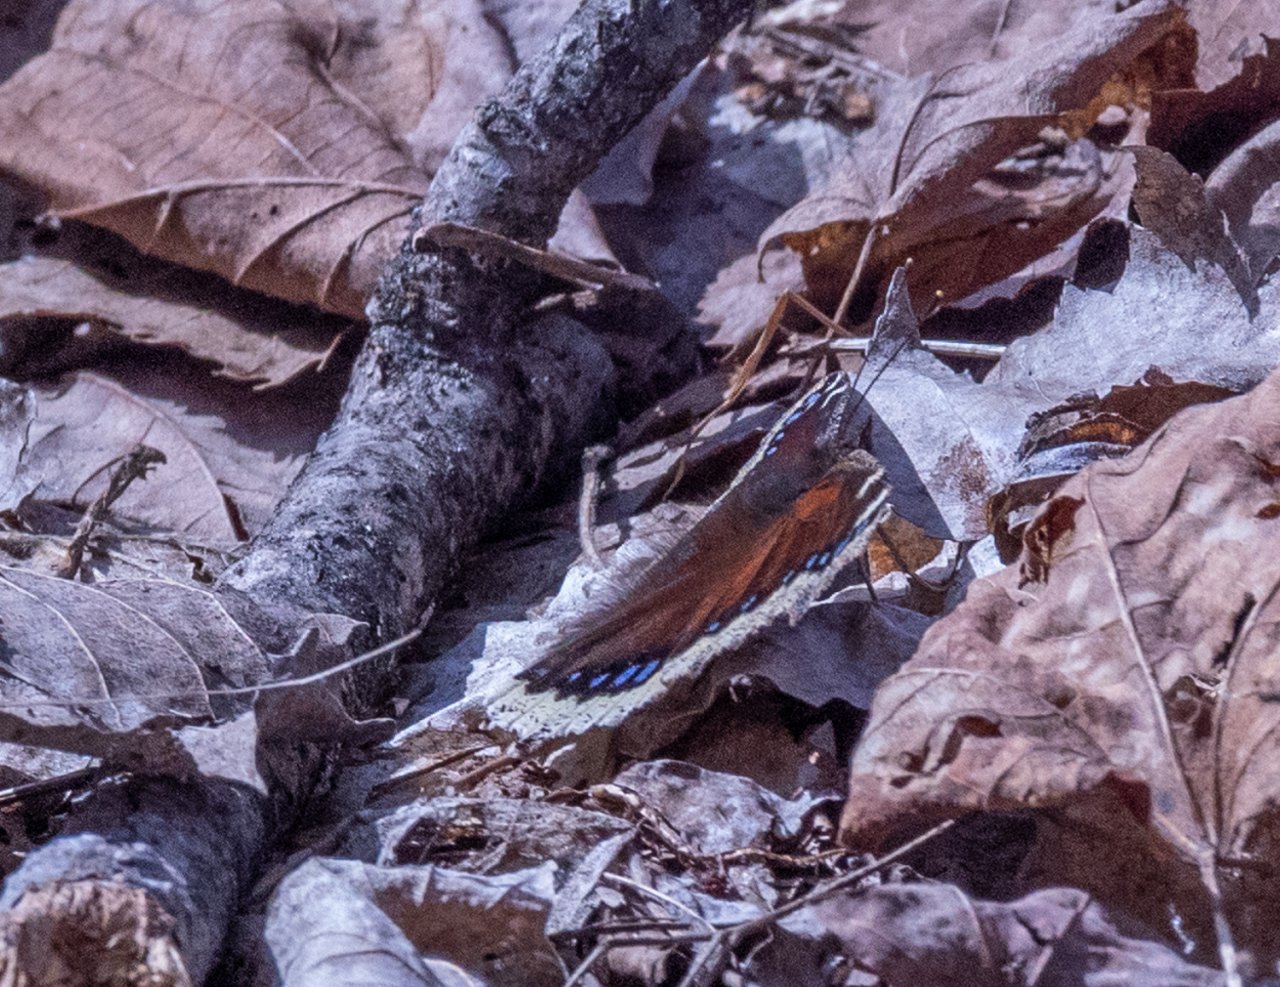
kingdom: Animalia
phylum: Arthropoda
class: Insecta
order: Lepidoptera
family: Nymphalidae
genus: Nymphalis
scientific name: Nymphalis antiopa
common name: Mourning Cloak
